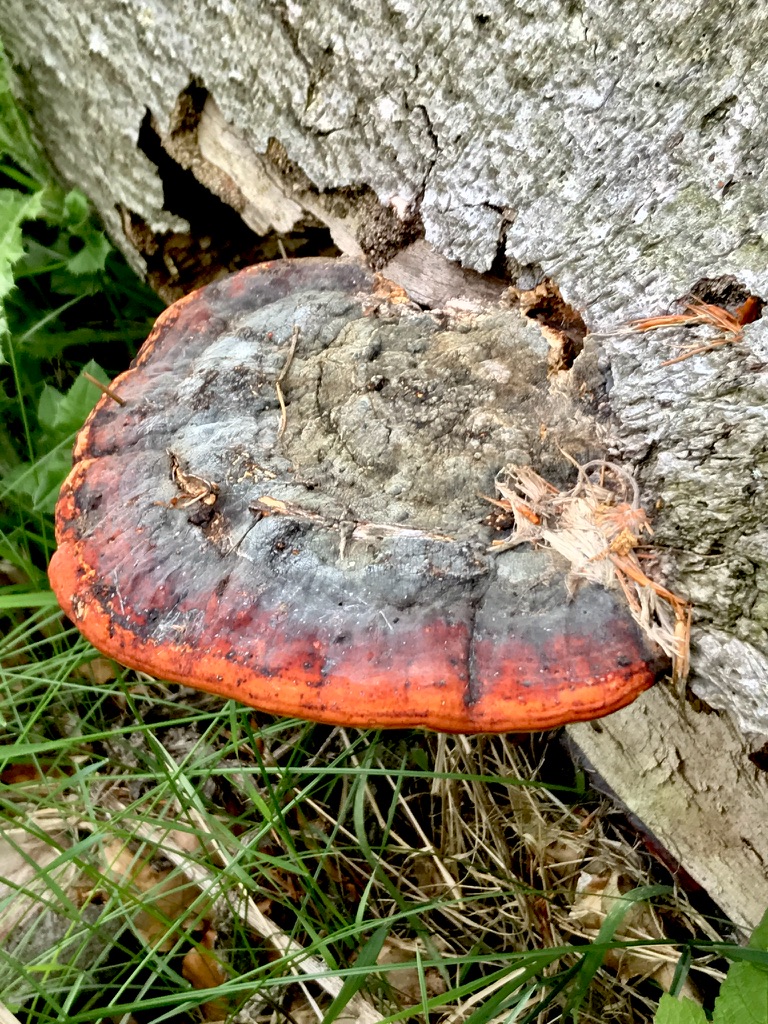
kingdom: Fungi
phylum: Basidiomycota
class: Agaricomycetes
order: Polyporales
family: Fomitopsidaceae
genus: Fomitopsis
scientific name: Fomitopsis pinicola
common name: randbæltet hovporesvamp
